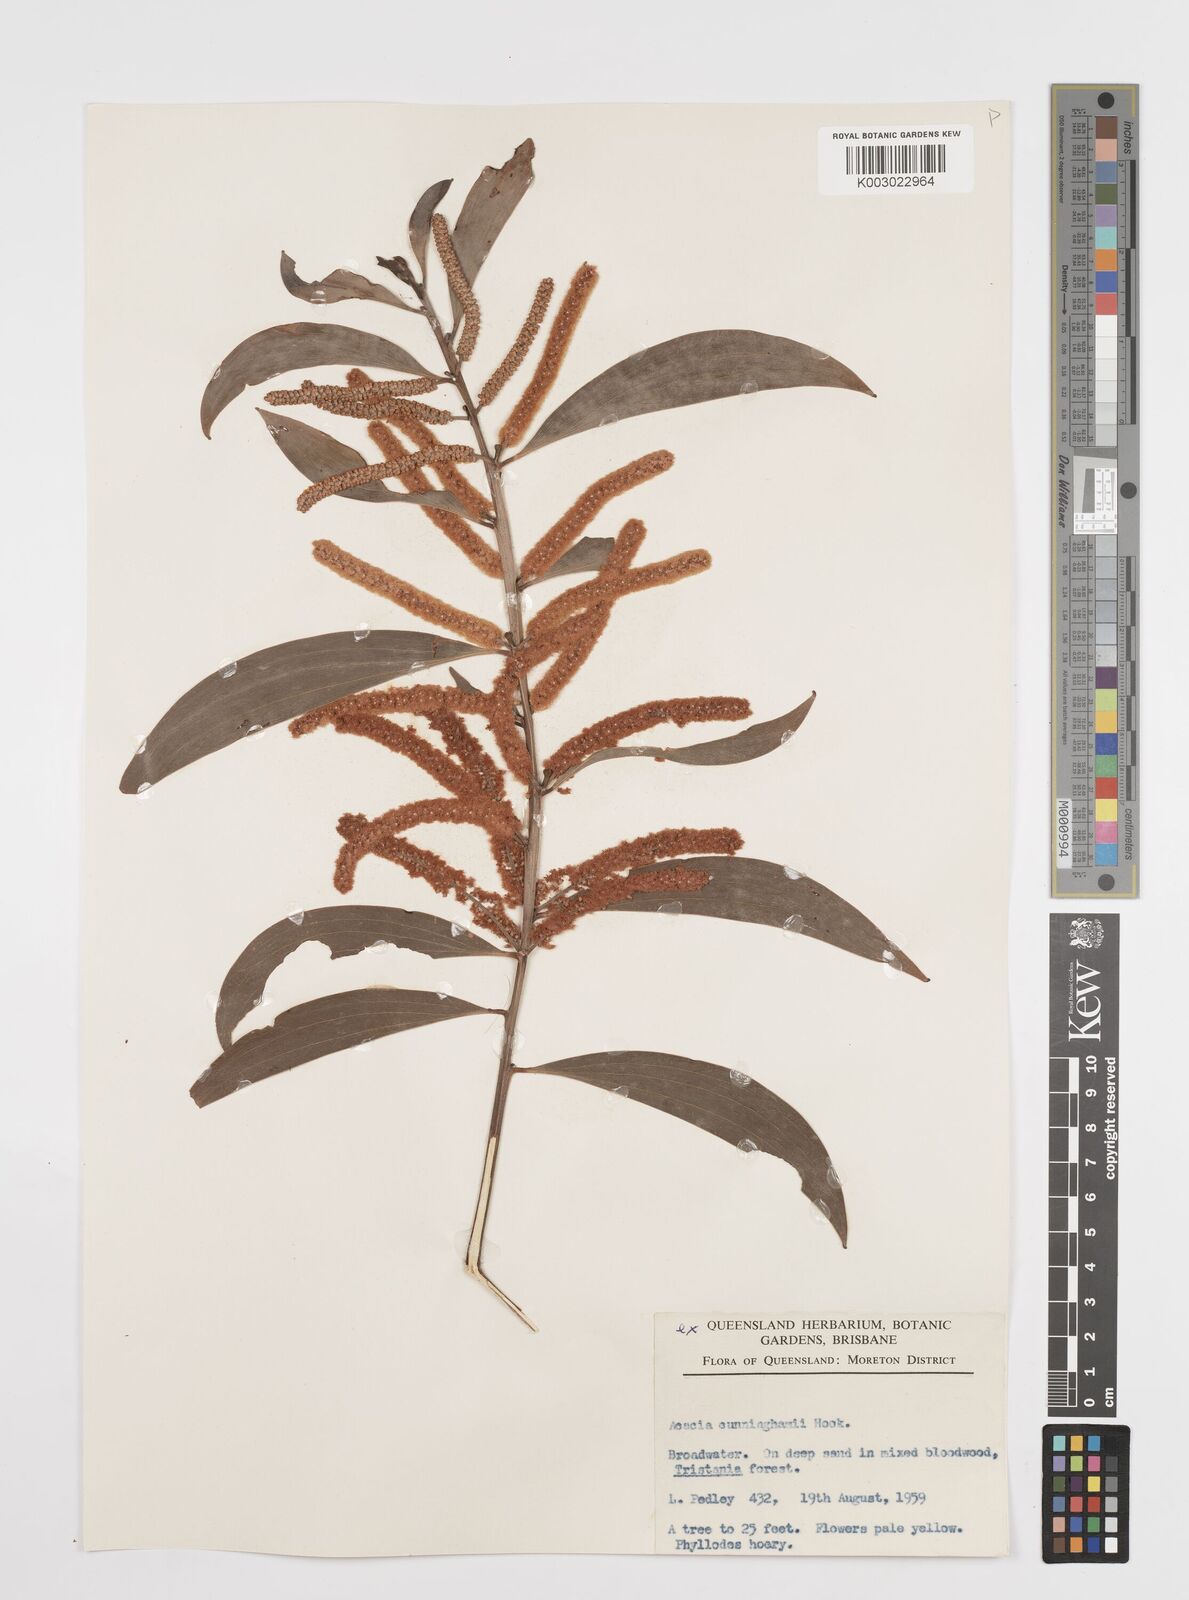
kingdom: Plantae
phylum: Tracheophyta
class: Magnoliopsida
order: Fabales
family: Fabaceae
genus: Acacia
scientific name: Acacia longispicata
